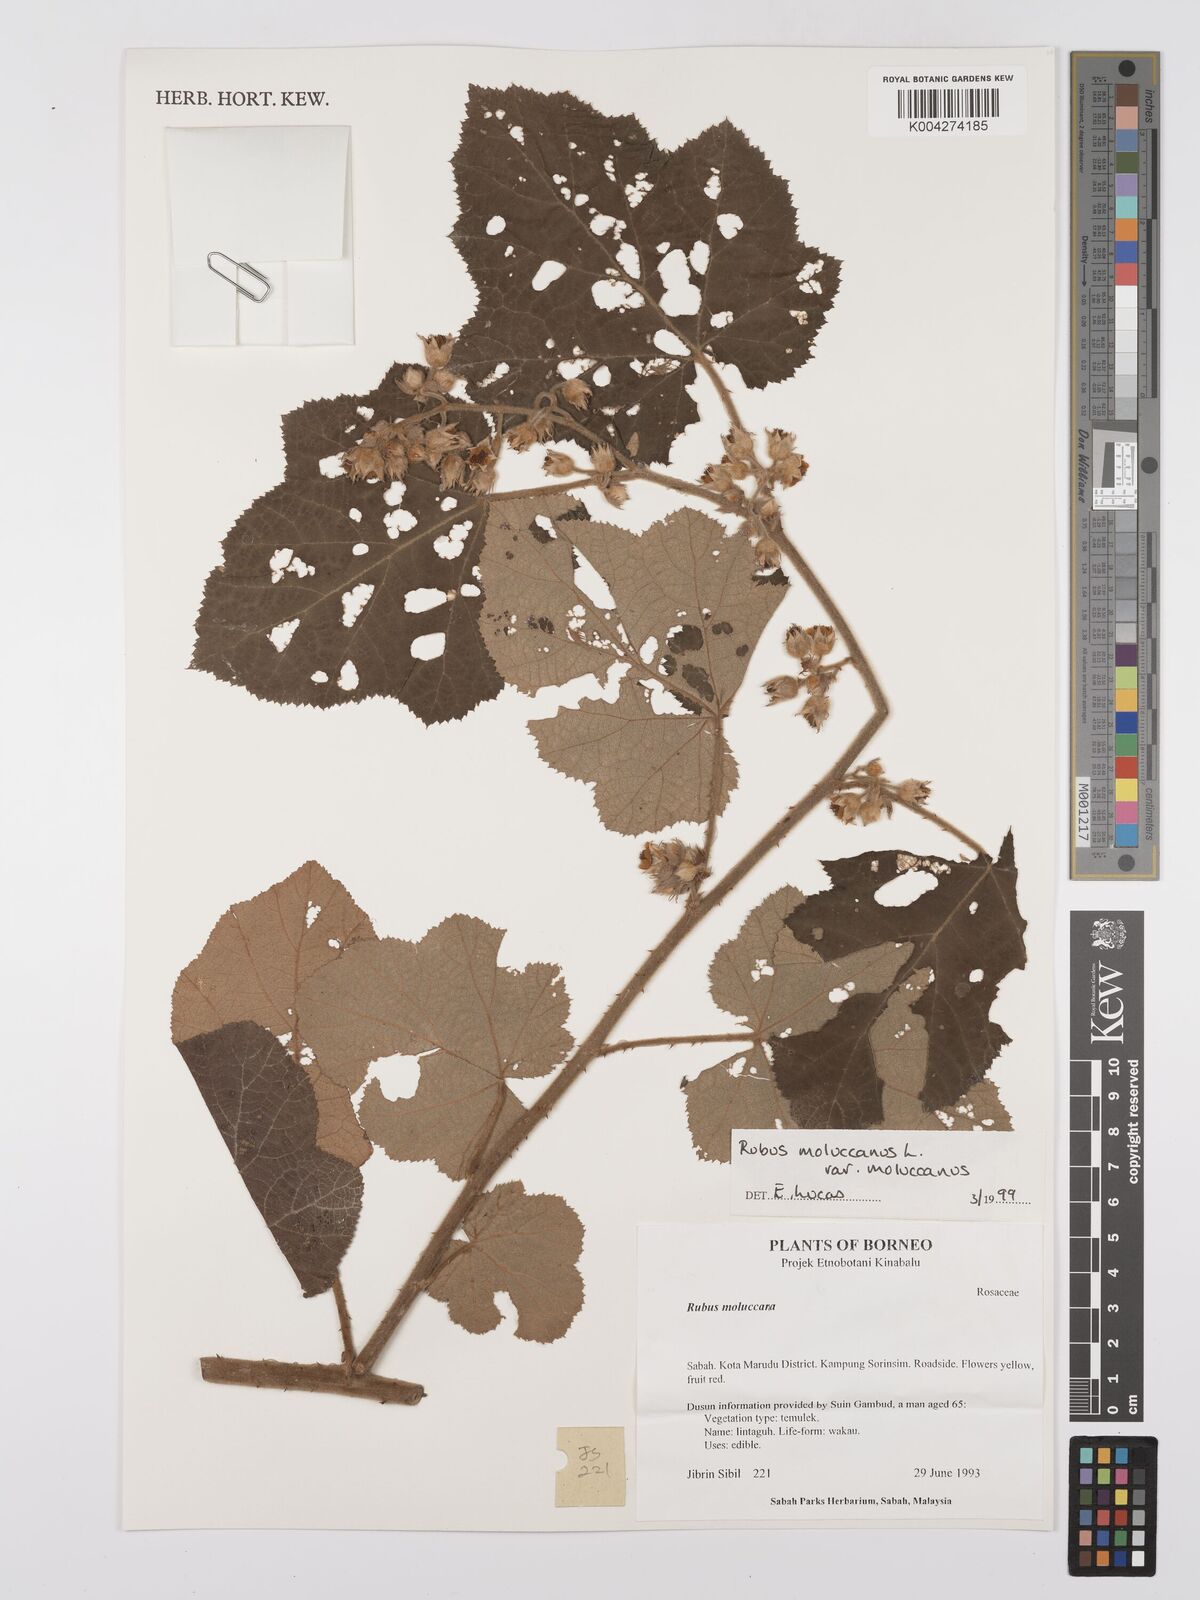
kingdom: Plantae
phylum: Tracheophyta
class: Magnoliopsida
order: Rosales
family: Rosaceae
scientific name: Rosaceae
